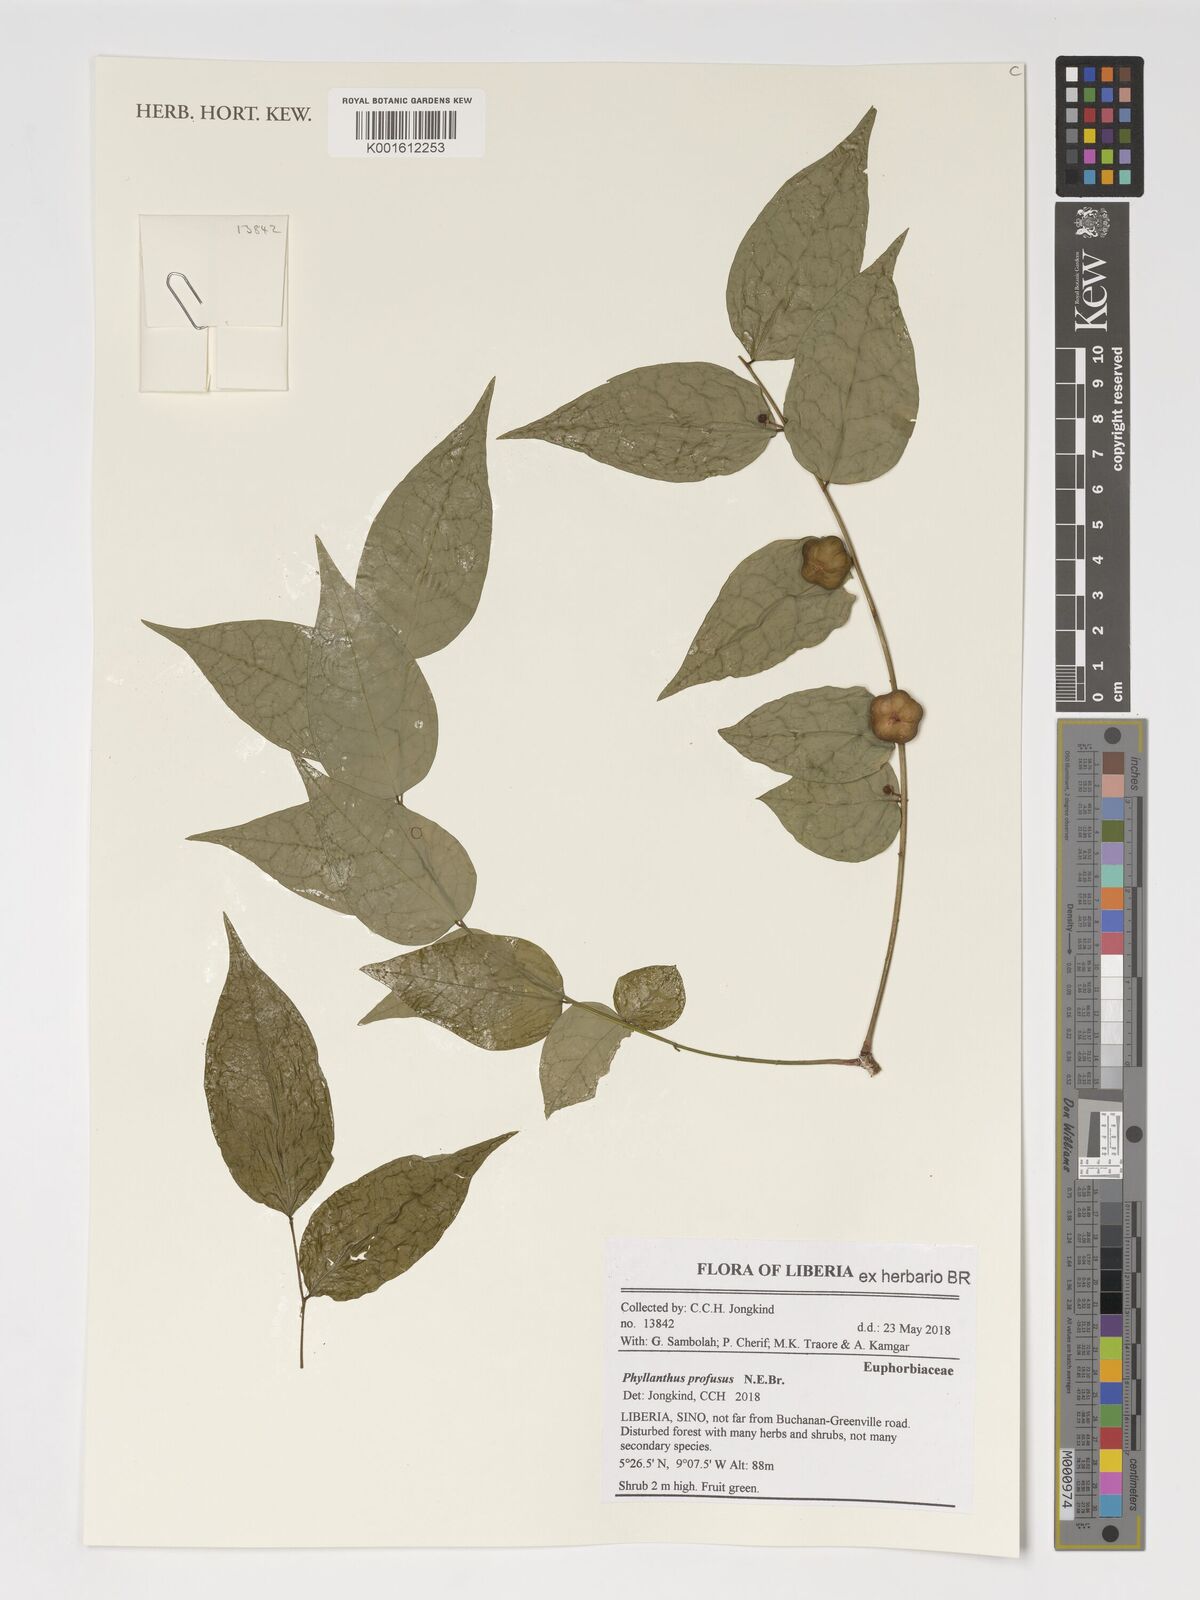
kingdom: Plantae
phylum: Tracheophyta
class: Magnoliopsida
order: Malpighiales
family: Phyllanthaceae
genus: Phyllanthus
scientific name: Phyllanthus profusus
